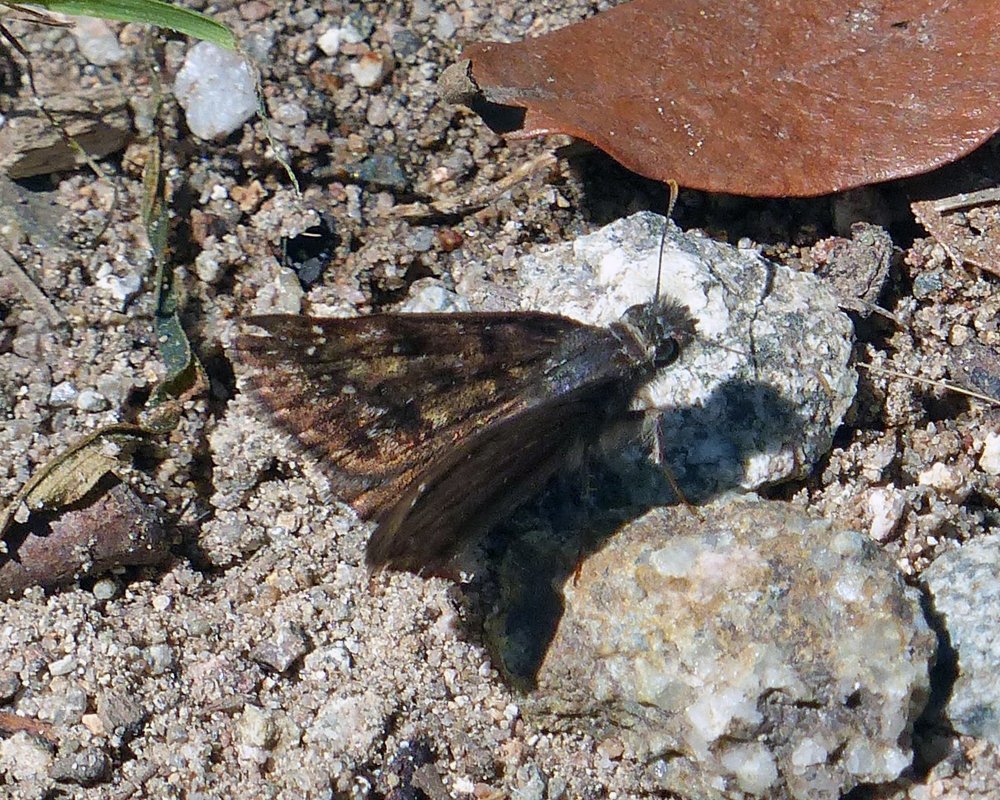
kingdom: Animalia
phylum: Arthropoda
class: Insecta
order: Lepidoptera
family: Hesperiidae
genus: Erynnis
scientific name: Erynnis meridianus
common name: Meridian Duskywing
